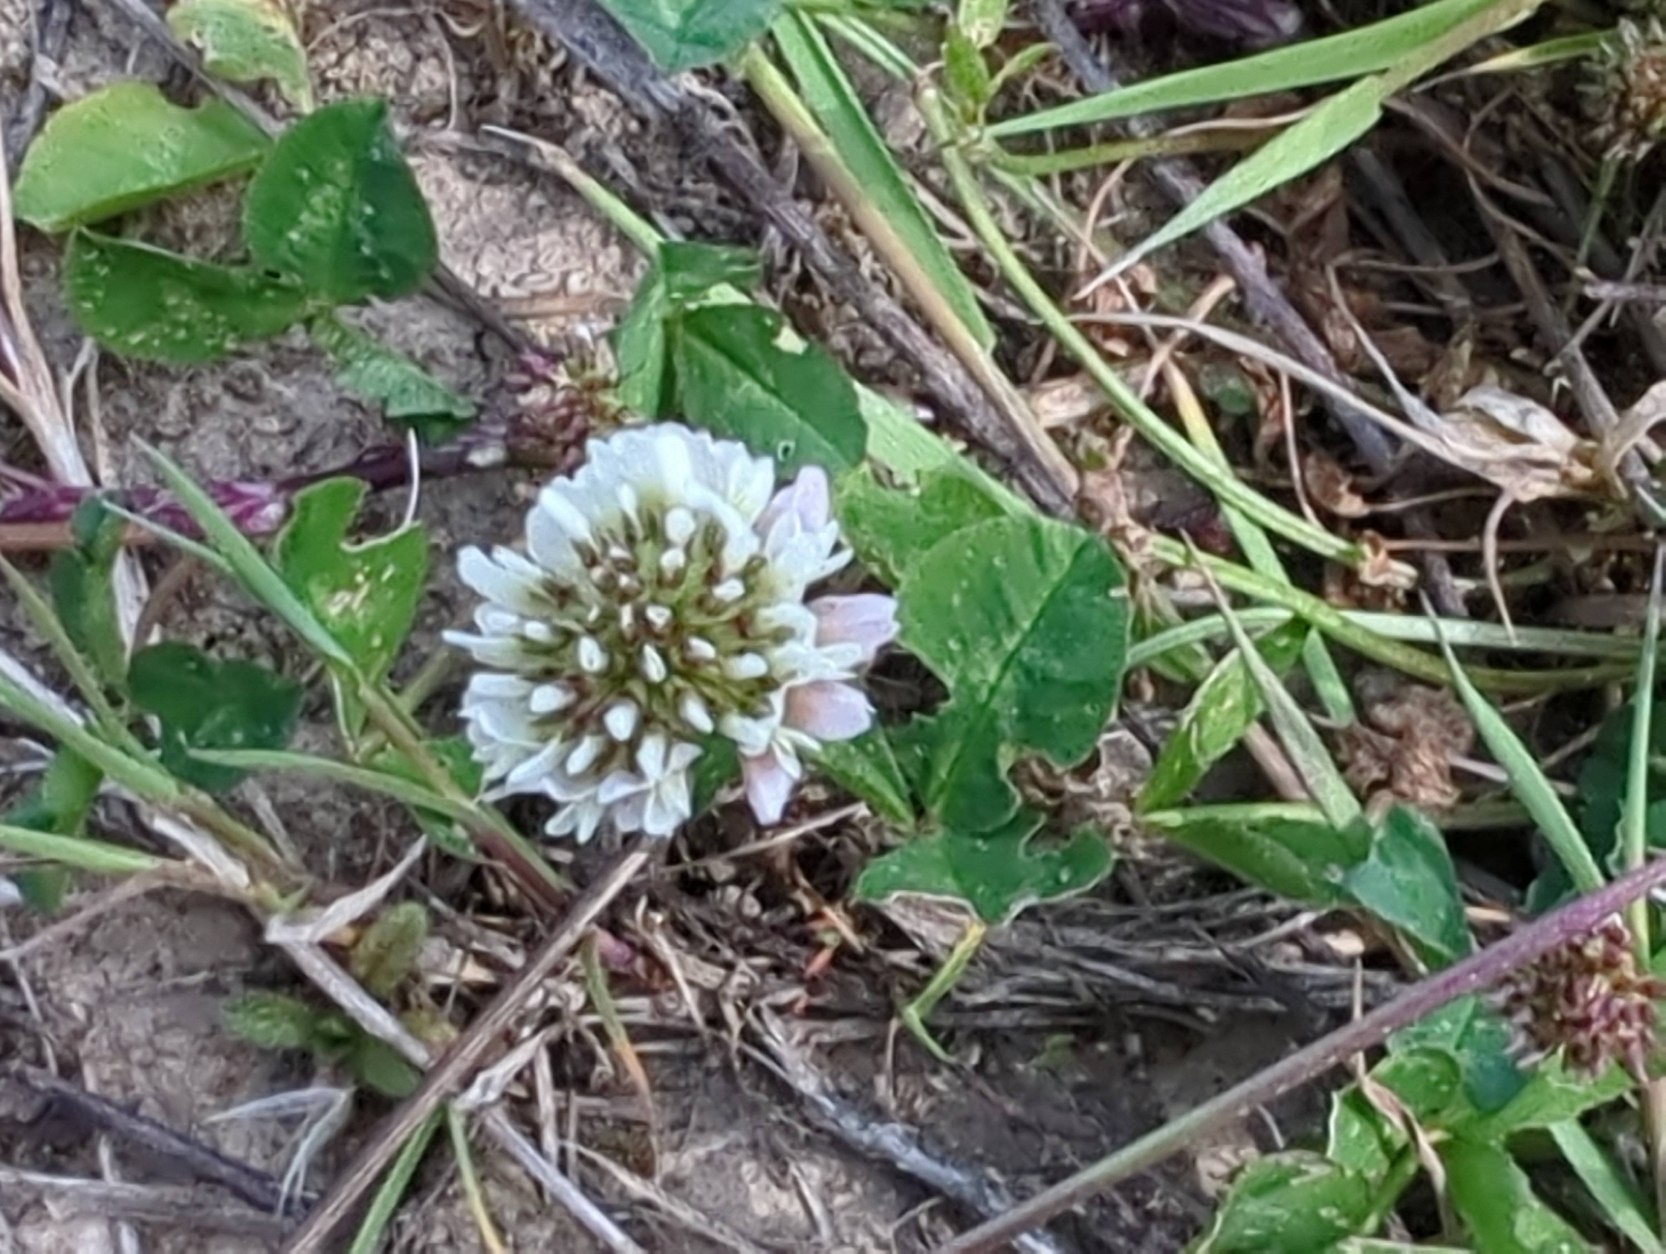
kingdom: Plantae
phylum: Tracheophyta
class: Magnoliopsida
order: Fabales
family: Fabaceae
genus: Trifolium
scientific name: Trifolium repens
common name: Hvid-kløver
